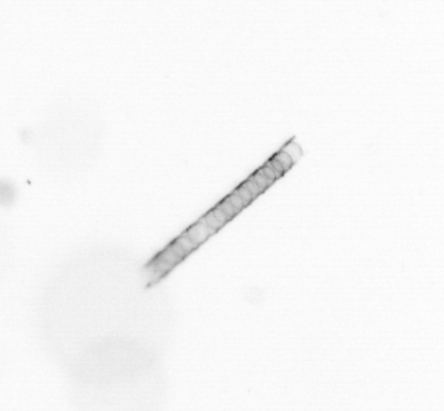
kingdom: Chromista
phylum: Ochrophyta
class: Bacillariophyceae
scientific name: Bacillariophyceae
